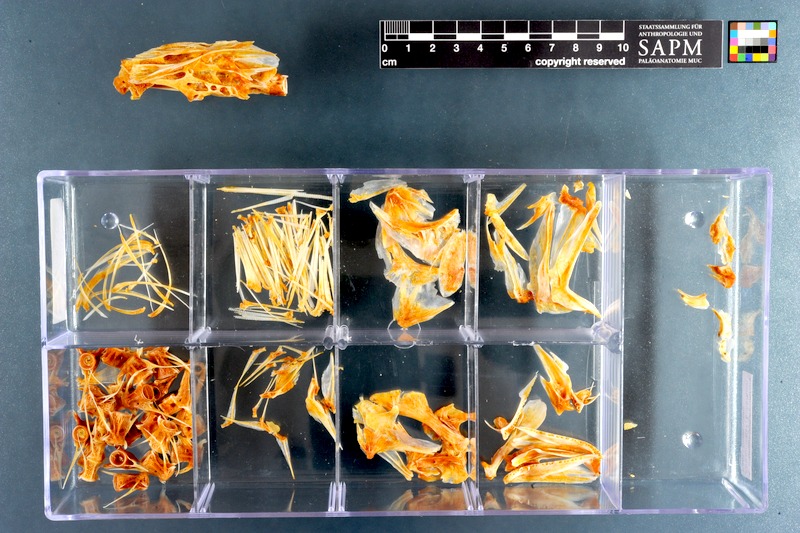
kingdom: Animalia
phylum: Chordata
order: Perciformes
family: Sciaenidae
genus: Atractoscion
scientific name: Atractoscion aequidens
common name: Geelbeck croaker
